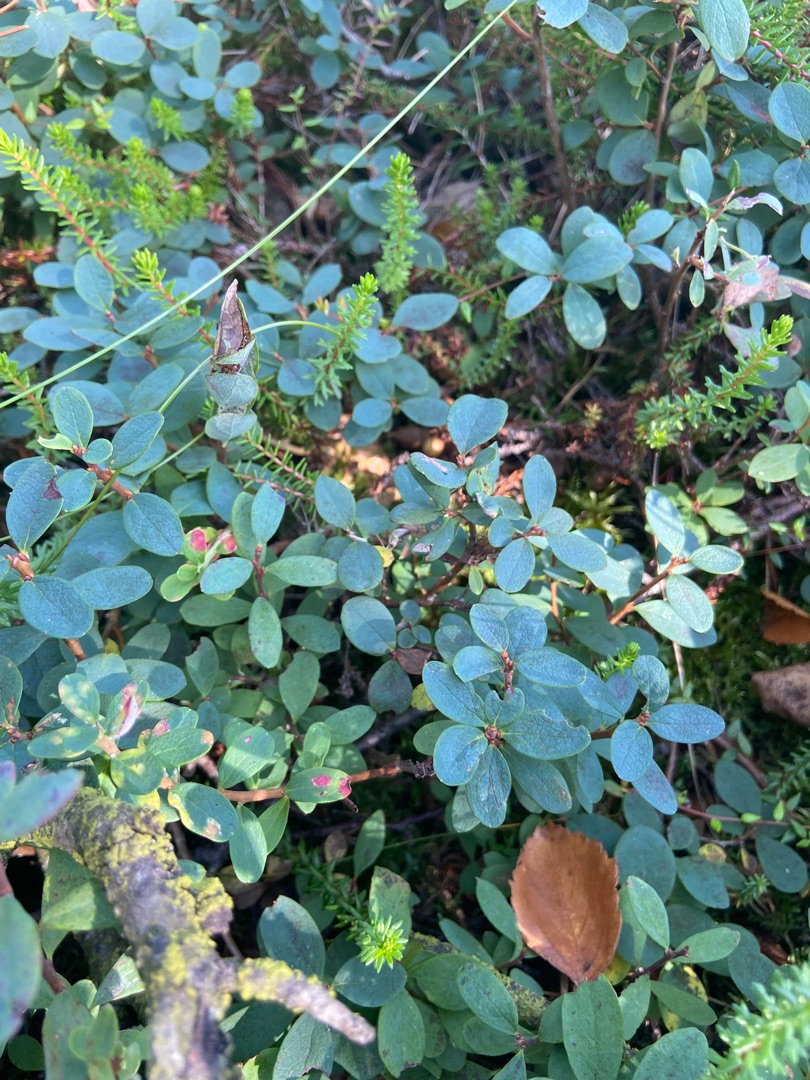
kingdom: Plantae
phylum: Tracheophyta
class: Magnoliopsida
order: Ericales
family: Ericaceae
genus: Vaccinium
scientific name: Vaccinium uliginosum
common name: Mose-bølle
